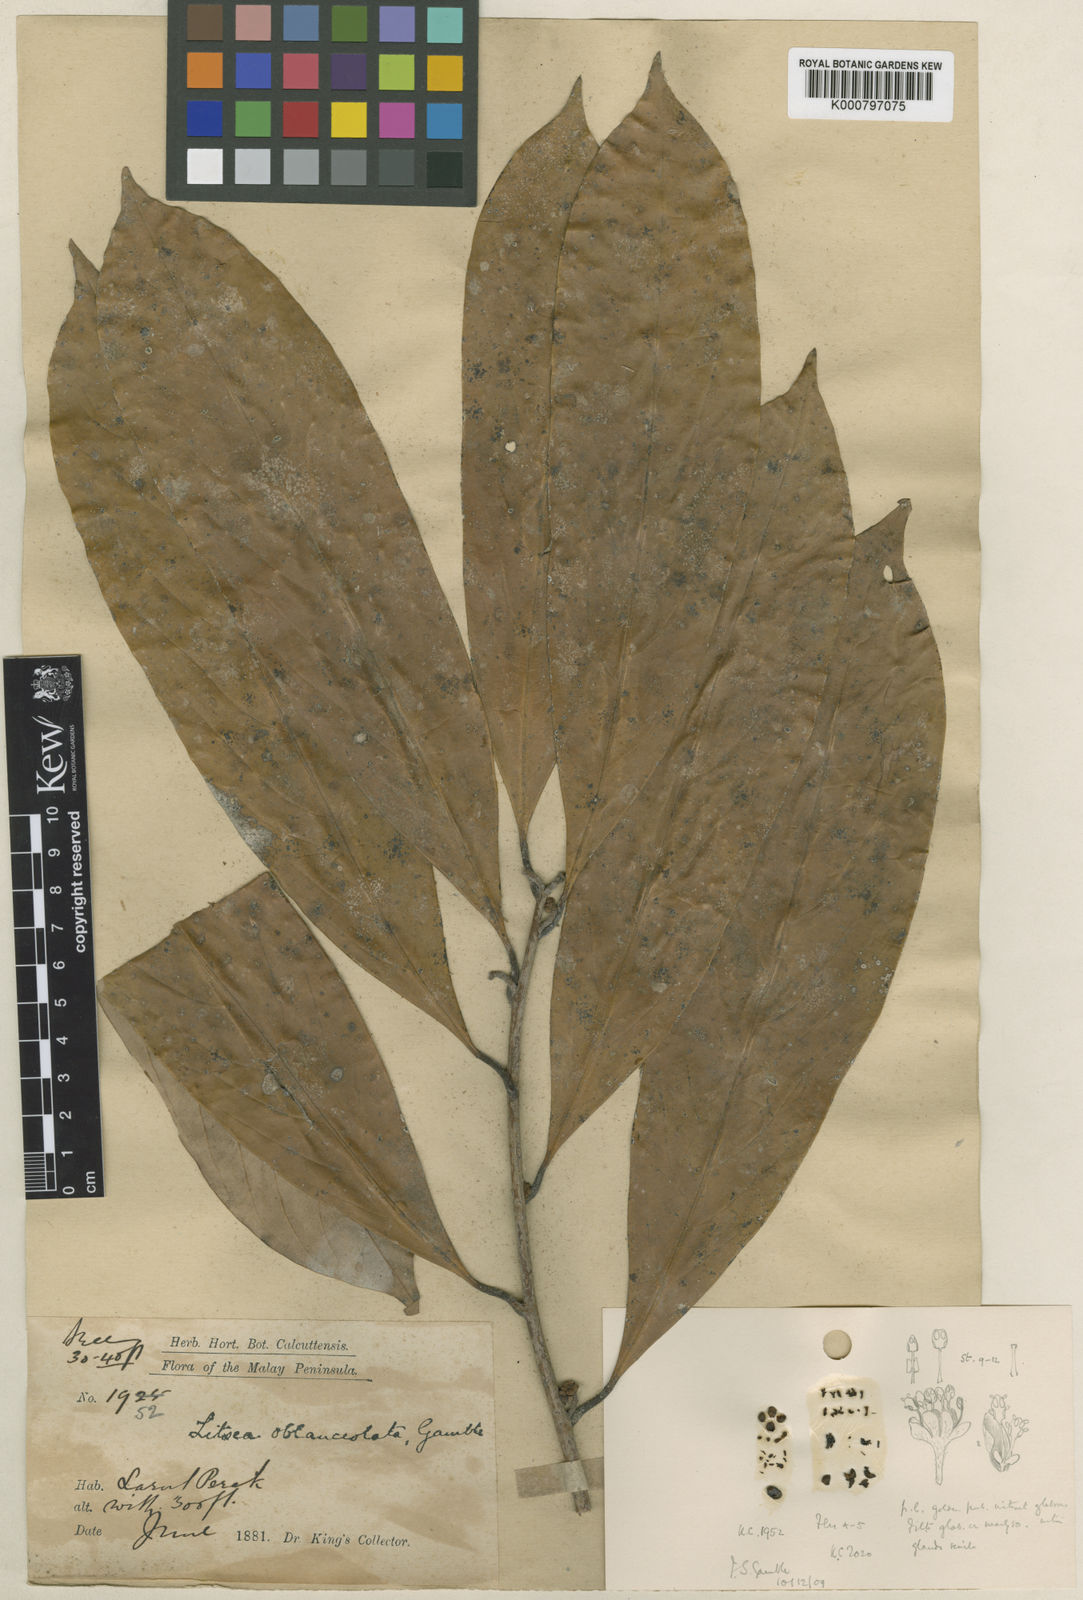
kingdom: Plantae
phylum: Tracheophyta
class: Magnoliopsida
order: Laurales
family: Lauraceae
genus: Litsea
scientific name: Litsea accedens
